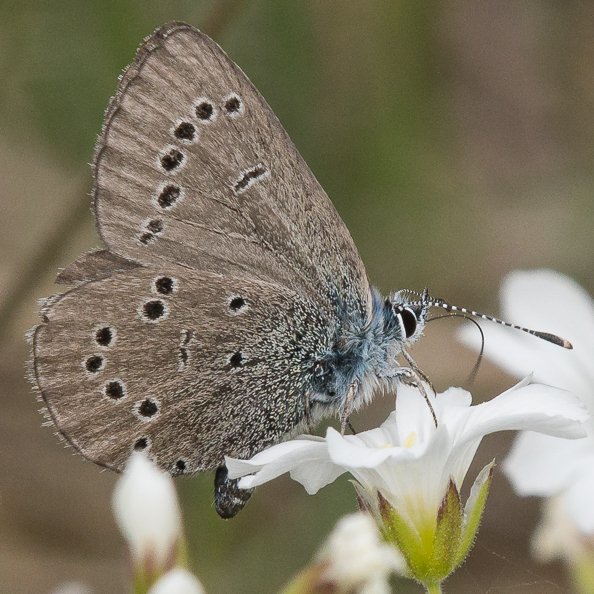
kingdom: Animalia
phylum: Arthropoda
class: Insecta
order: Lepidoptera
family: Lycaenidae
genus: Glaucopsyche
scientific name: Glaucopsyche lygdamus
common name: Silvery Blue
